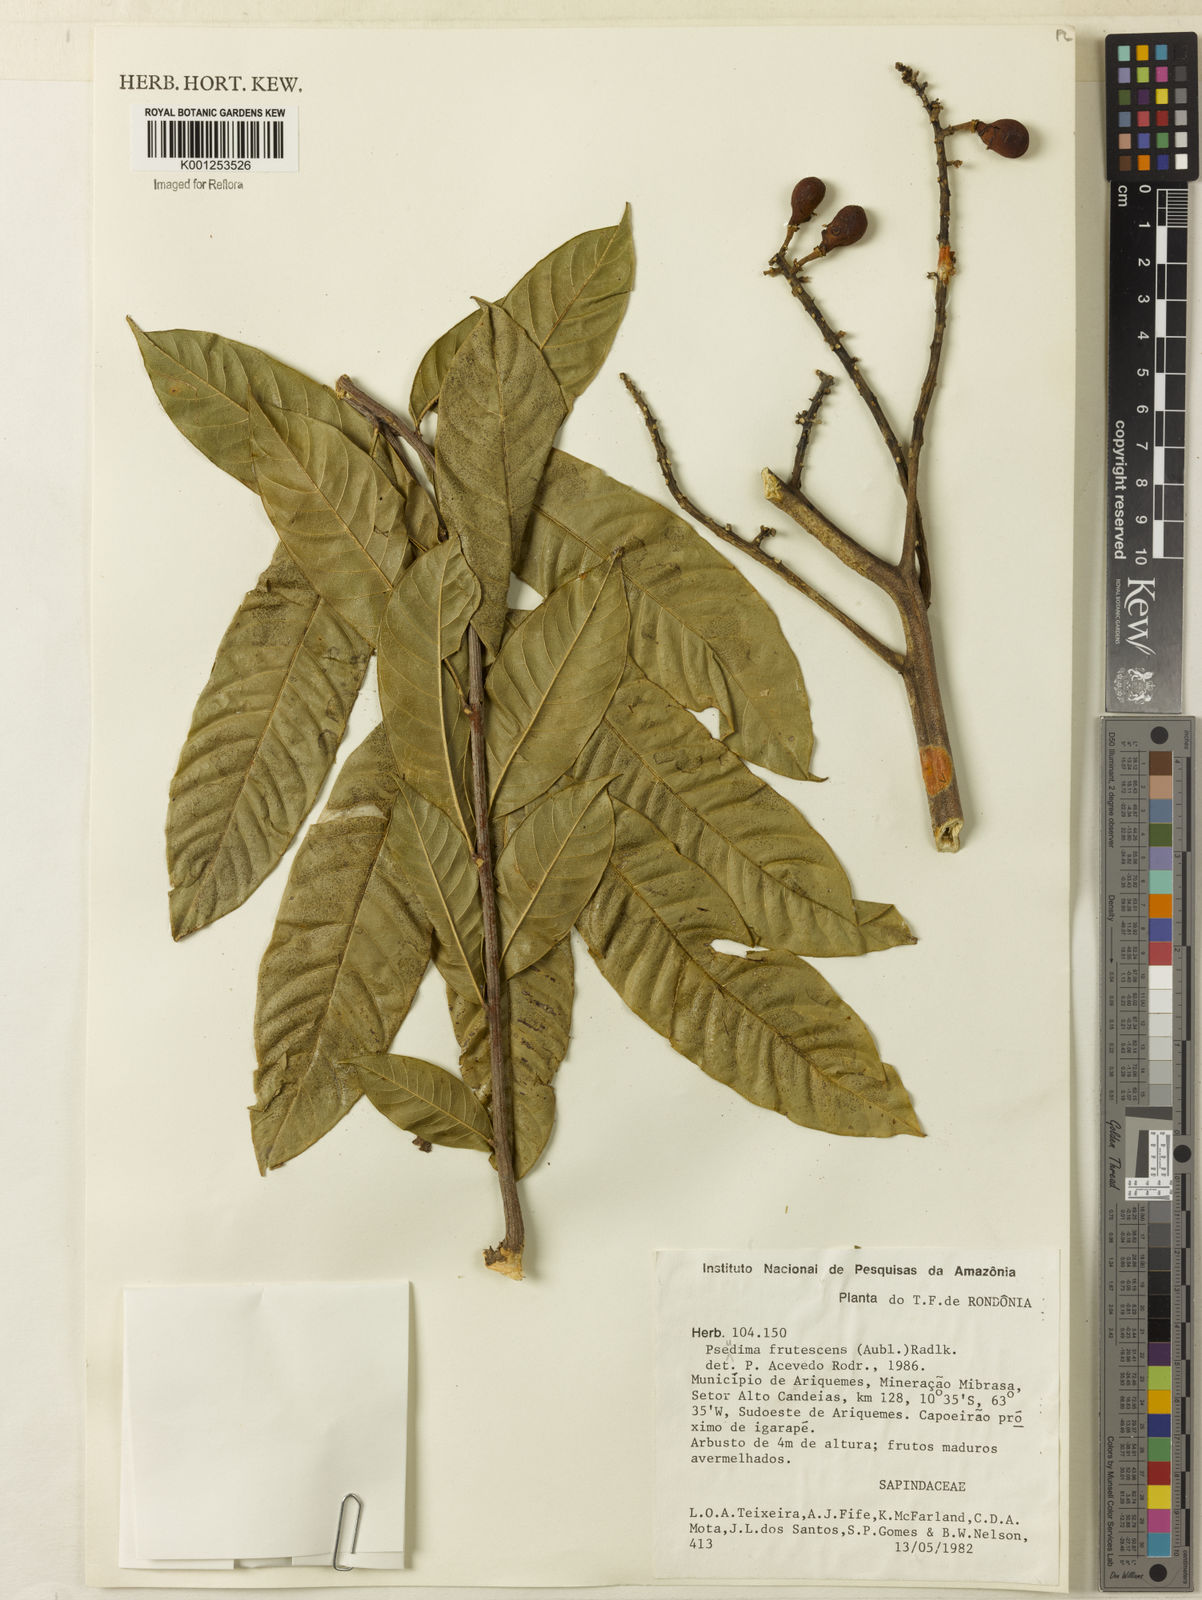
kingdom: Plantae
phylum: Tracheophyta
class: Magnoliopsida
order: Sapindales
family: Sapindaceae
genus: Pseudima
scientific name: Pseudima frutescens
